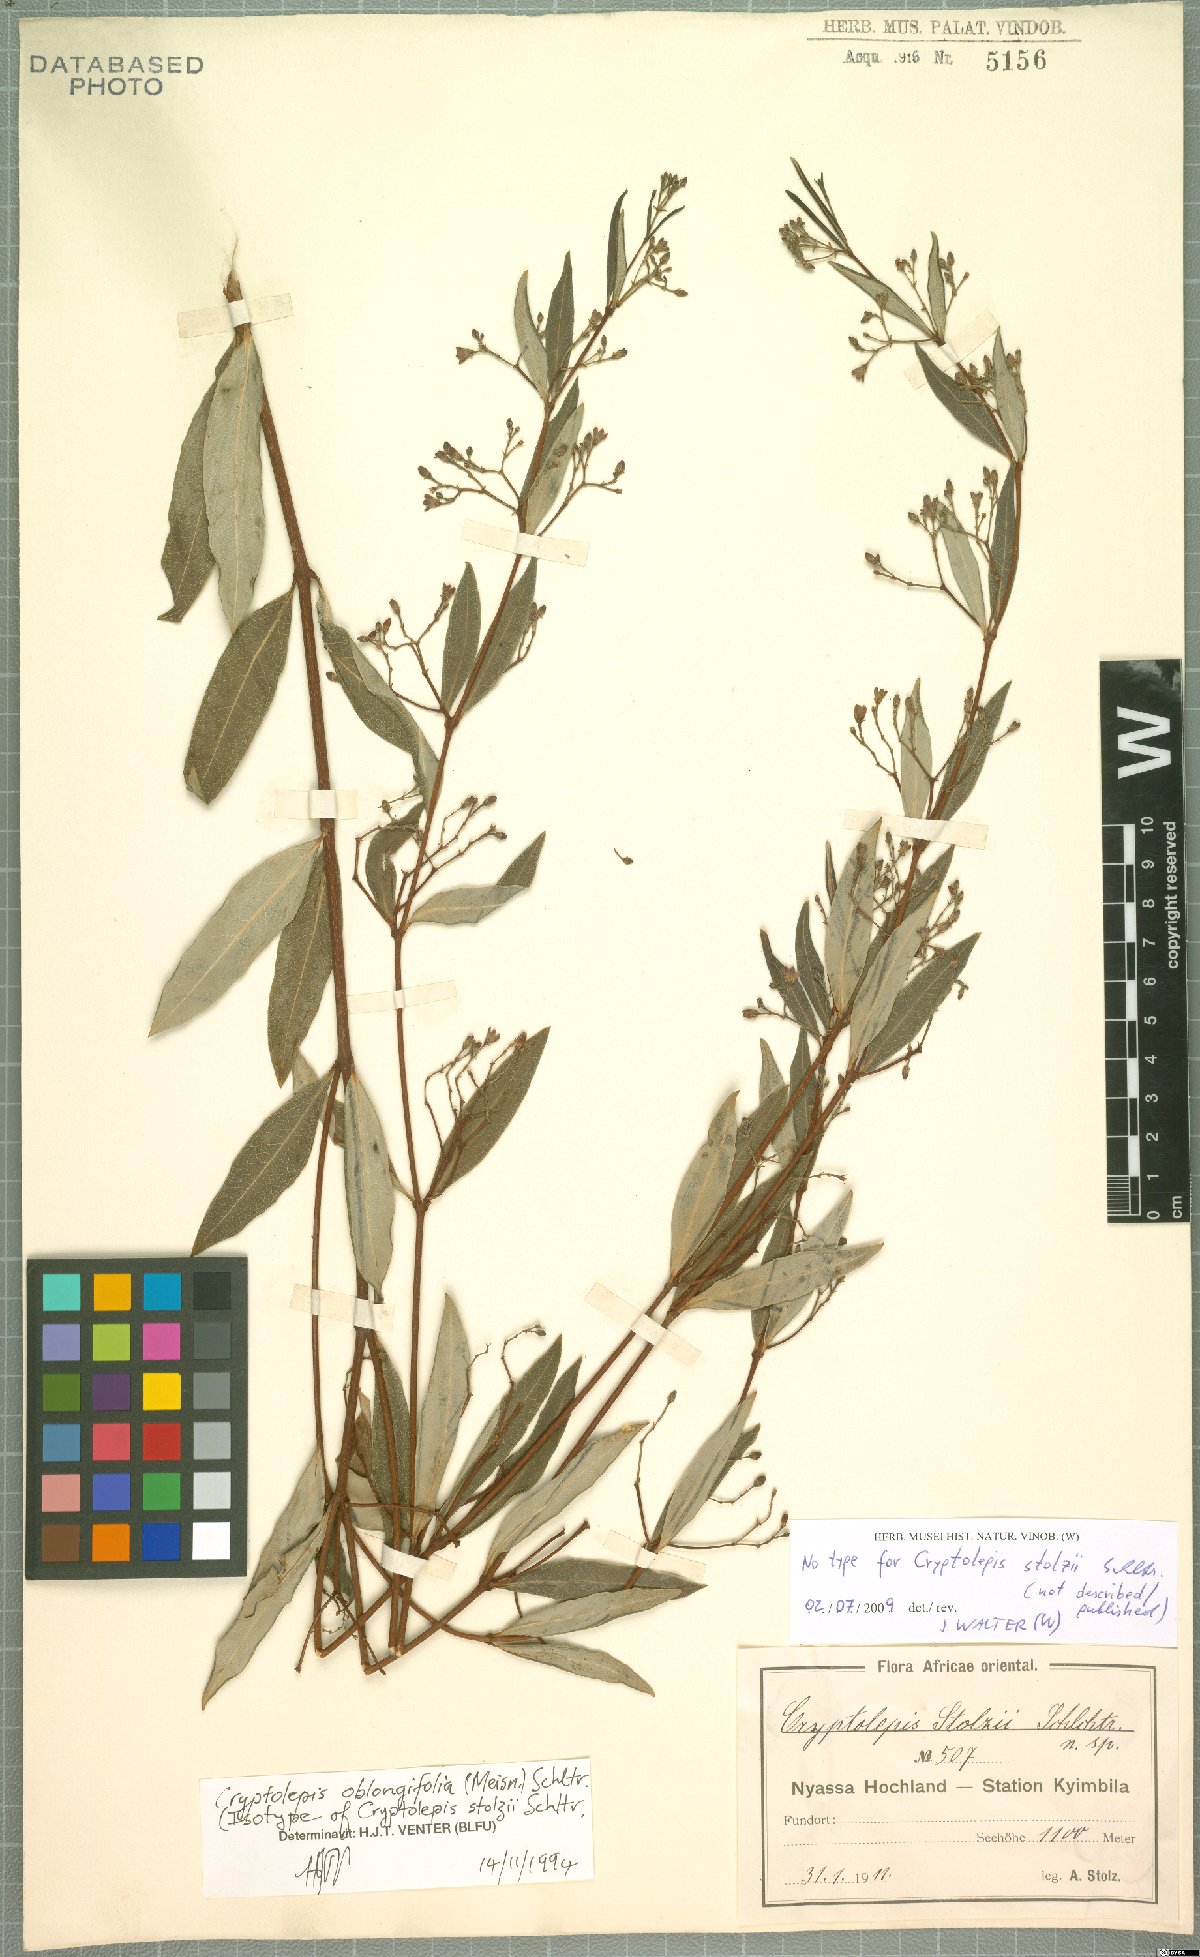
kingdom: Plantae
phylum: Tracheophyta
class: Magnoliopsida
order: Gentianales
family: Apocynaceae
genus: Cryptolepis
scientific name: Cryptolepis oblongifolia
